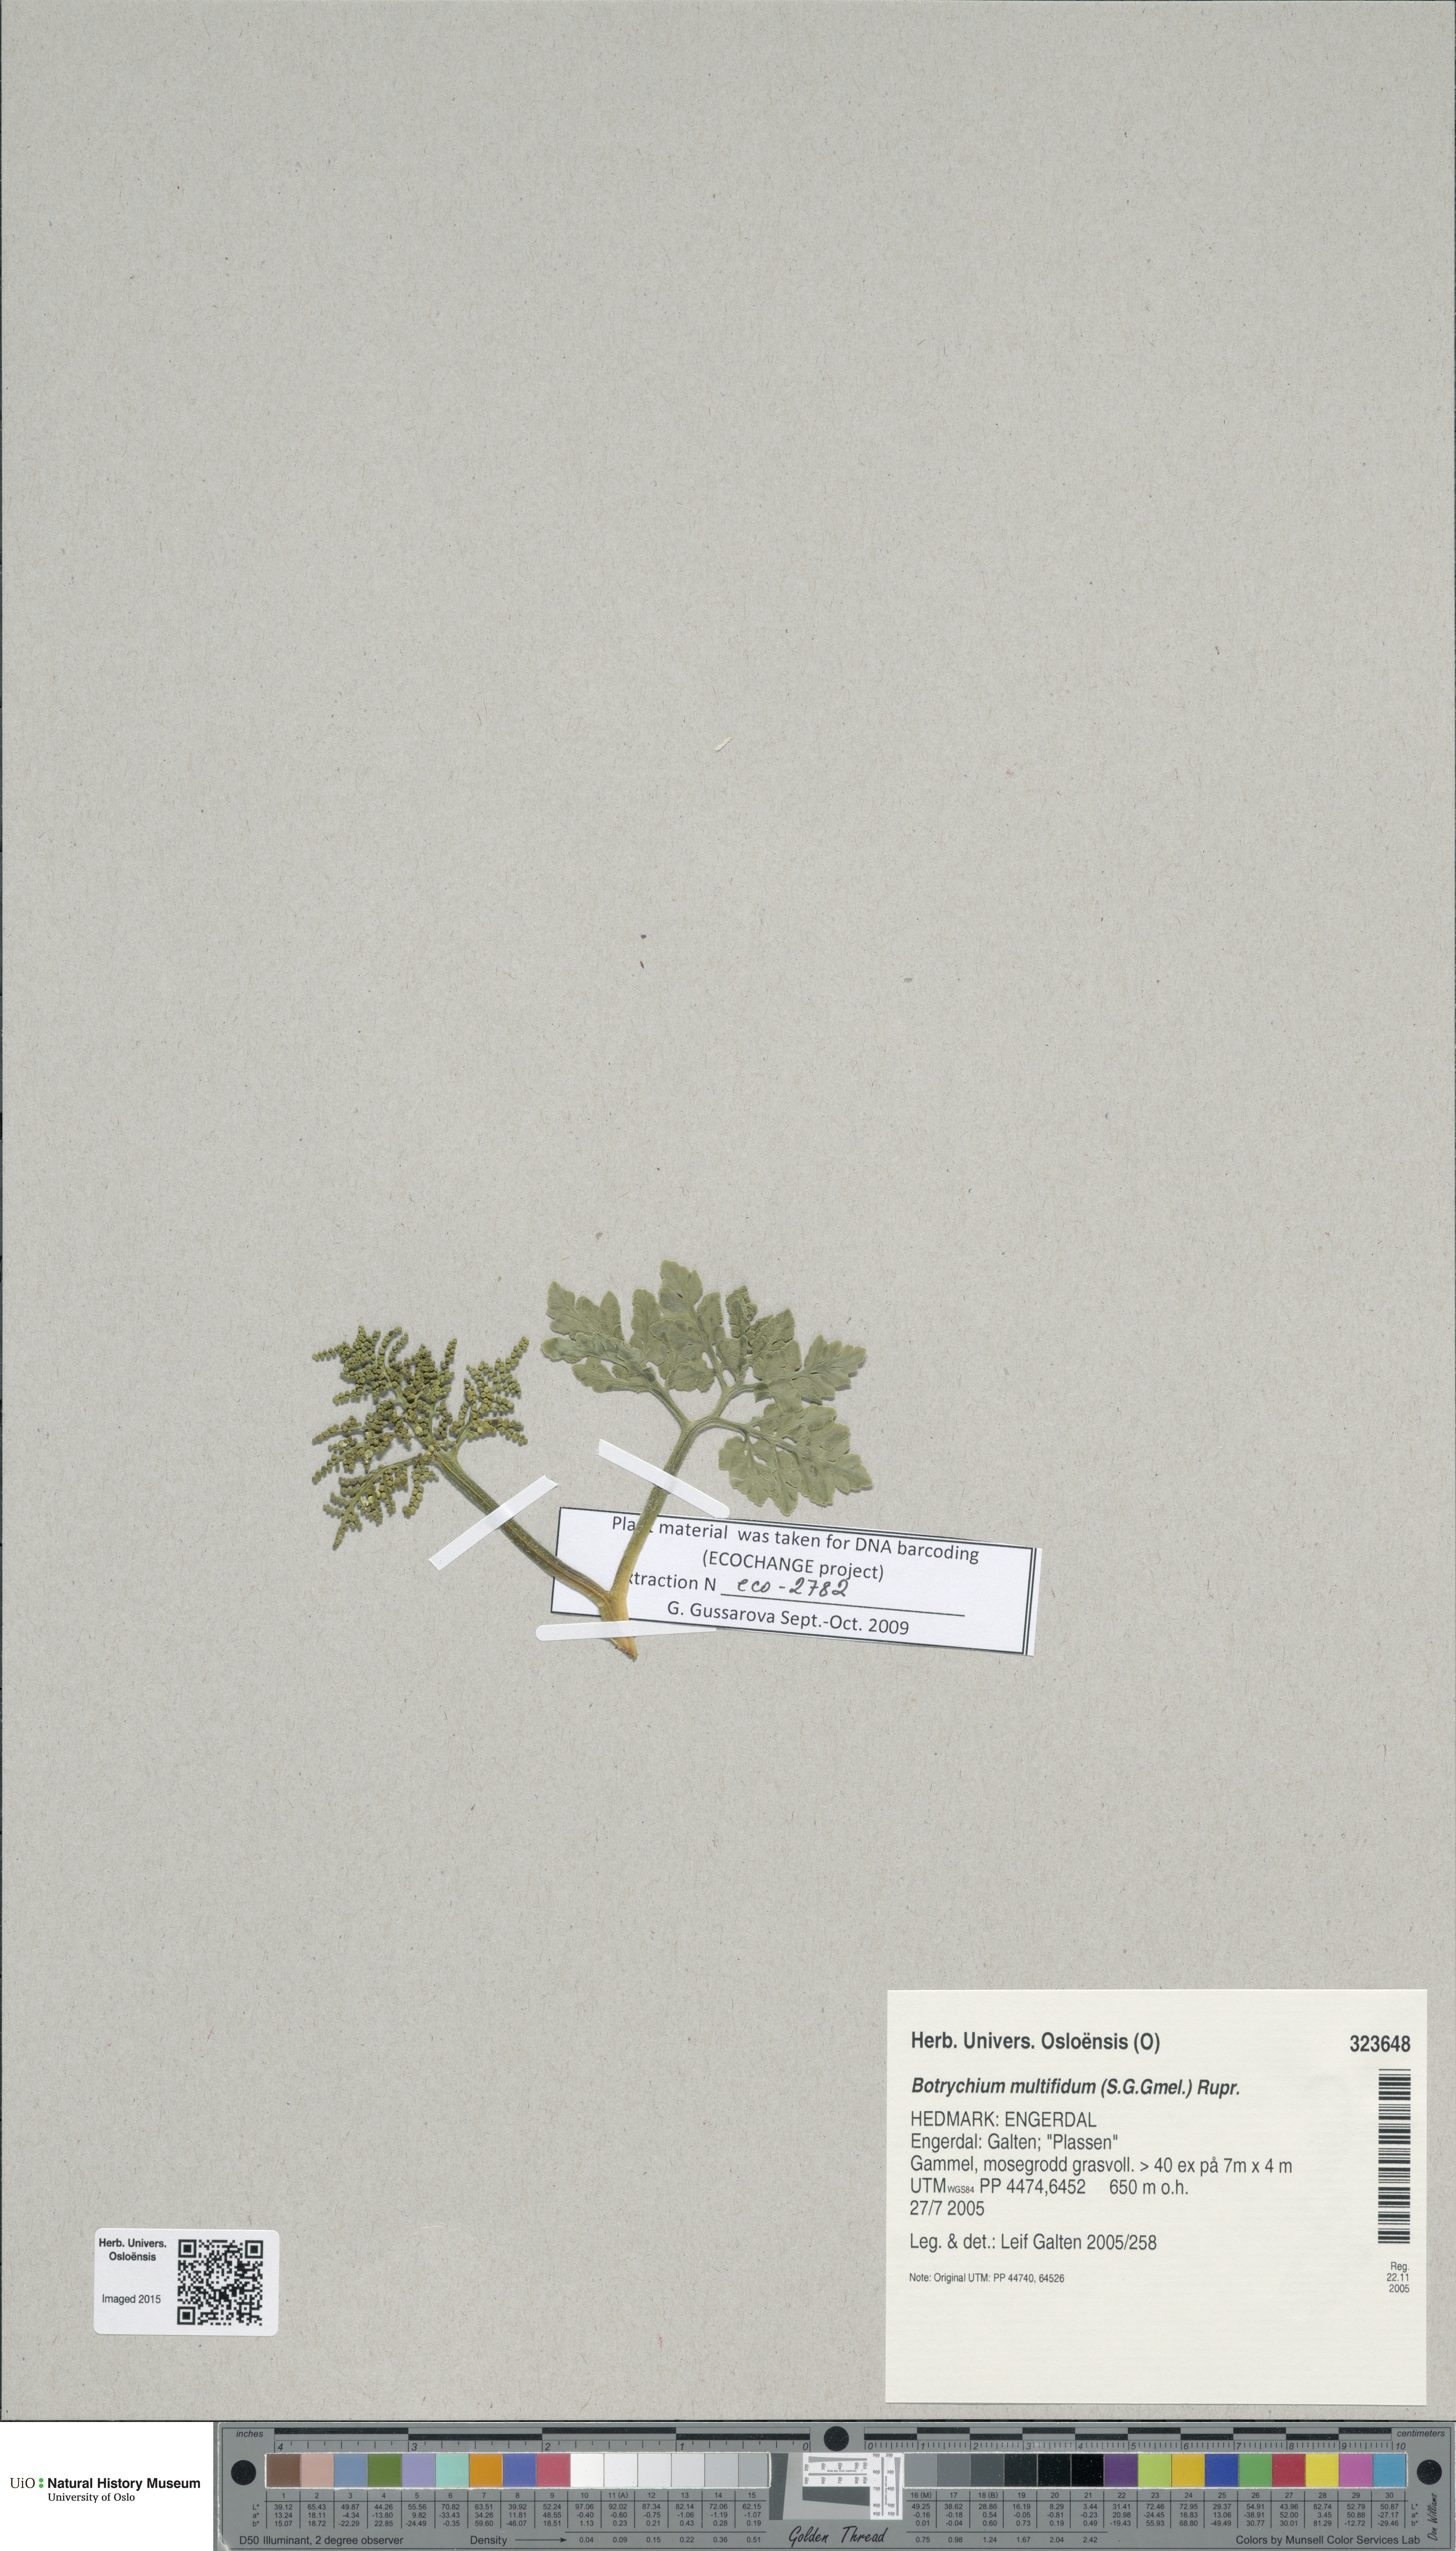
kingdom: Plantae
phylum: Tracheophyta
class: Polypodiopsida
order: Ophioglossales
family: Ophioglossaceae
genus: Sceptridium
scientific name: Sceptridium multifidum
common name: Leathery grape fern
